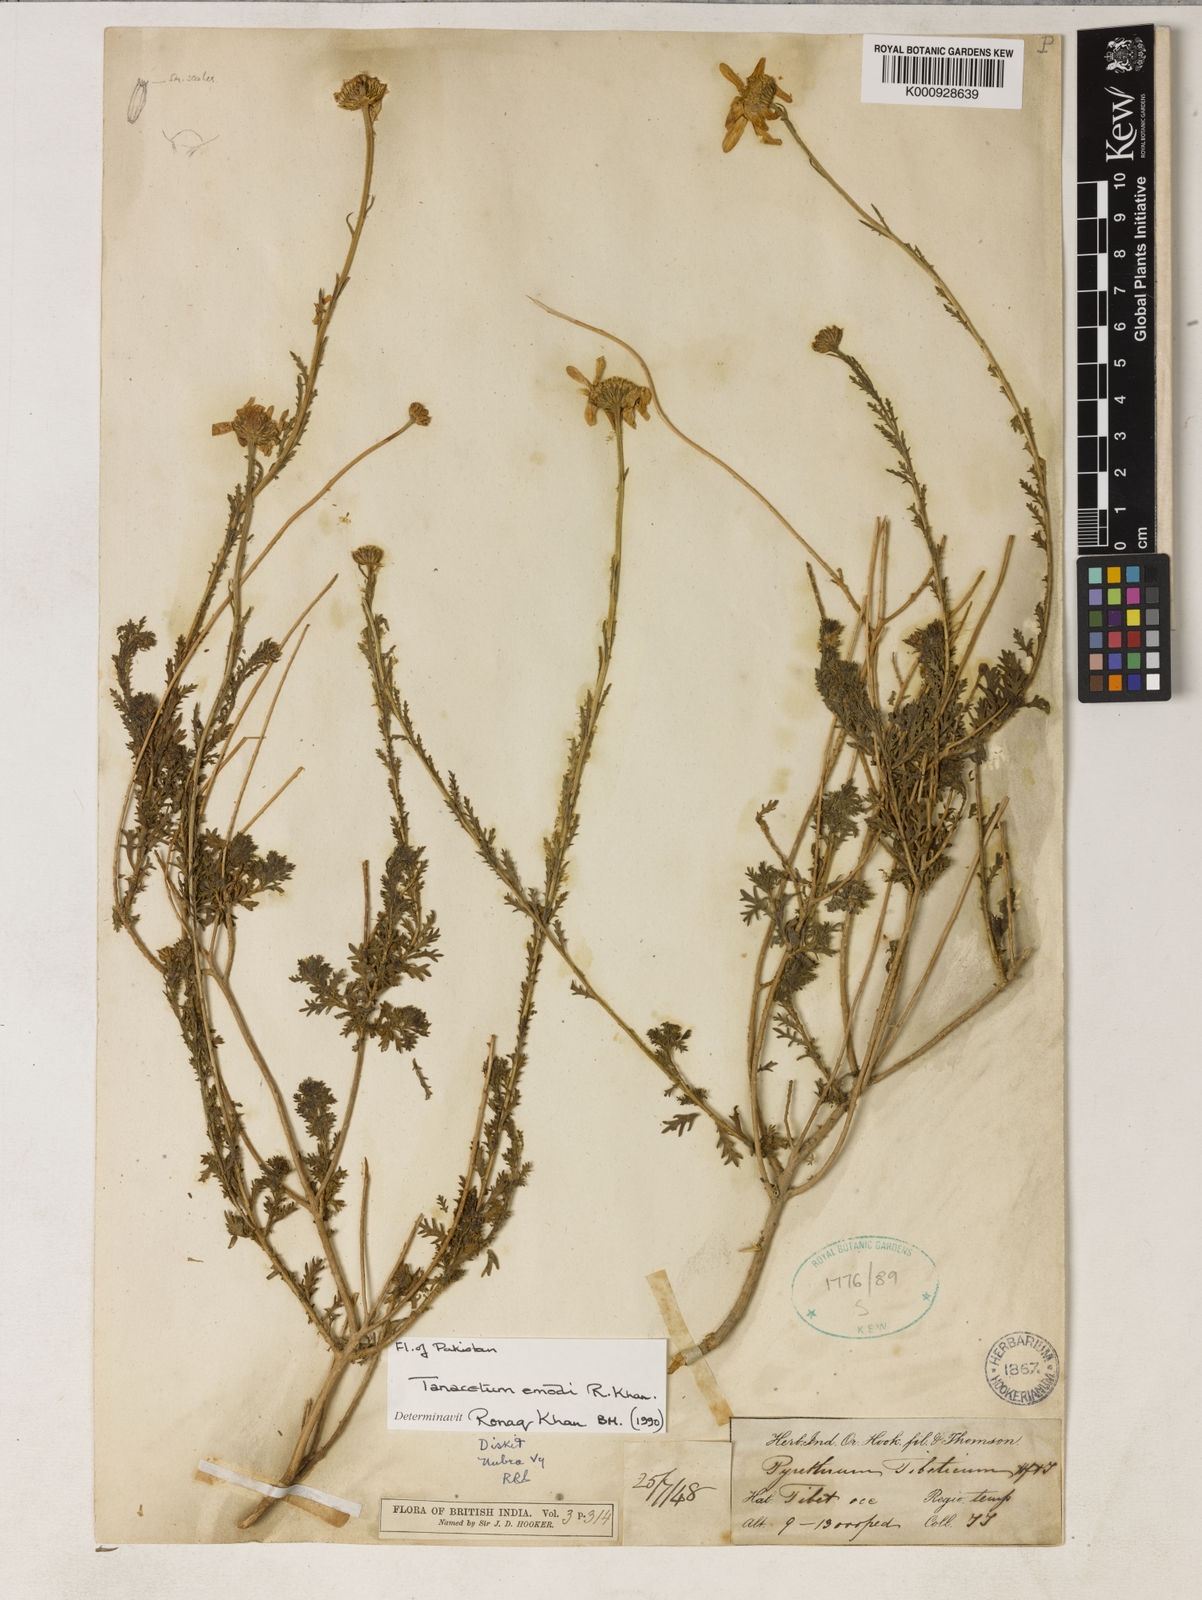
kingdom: Plantae
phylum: Tracheophyta
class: Magnoliopsida
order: Asterales
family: Asteraceae
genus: Tanacetum
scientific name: Tanacetum emodi
